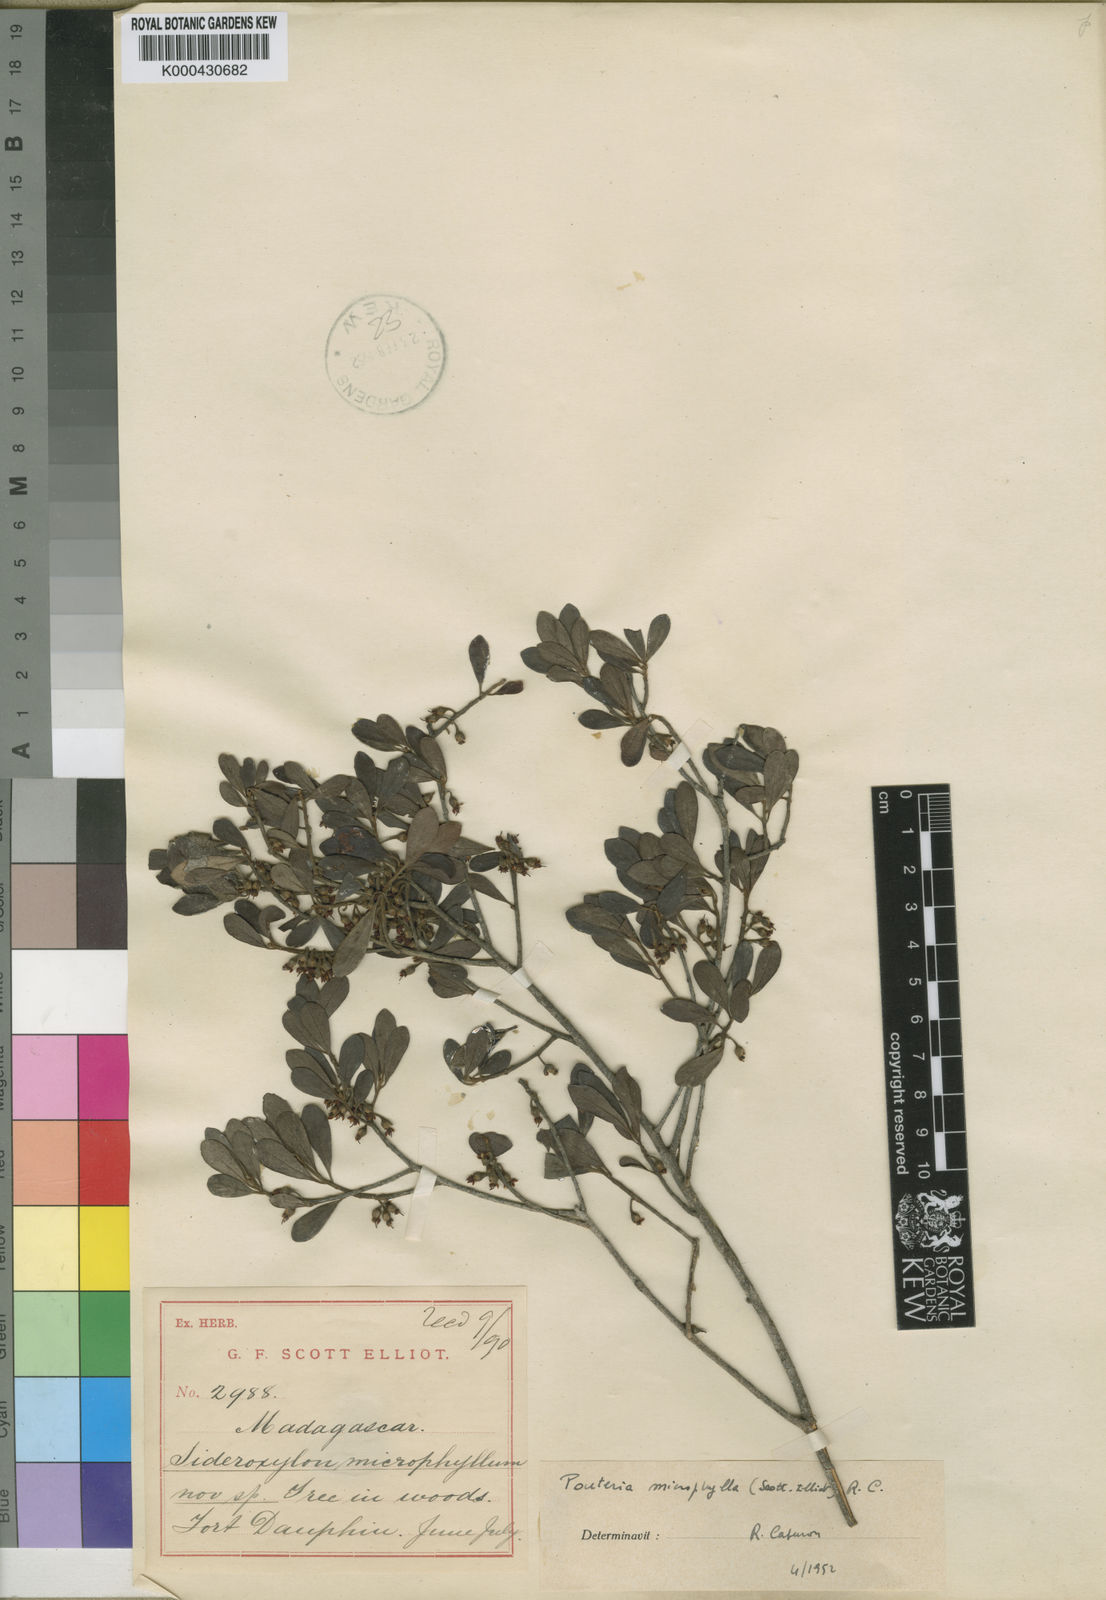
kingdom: Plantae
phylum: Tracheophyta
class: Magnoliopsida
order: Ericales
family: Sapotaceae
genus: Capurodendron
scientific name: Capurodendron
